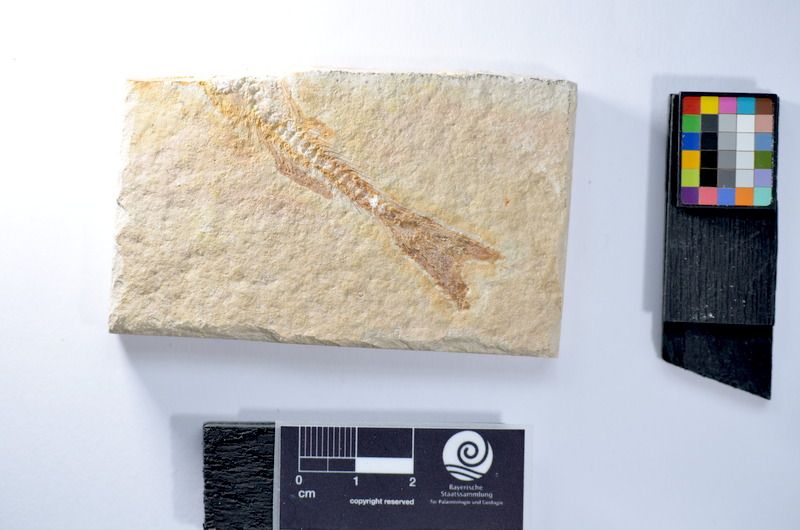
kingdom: Animalia
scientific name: Animalia
